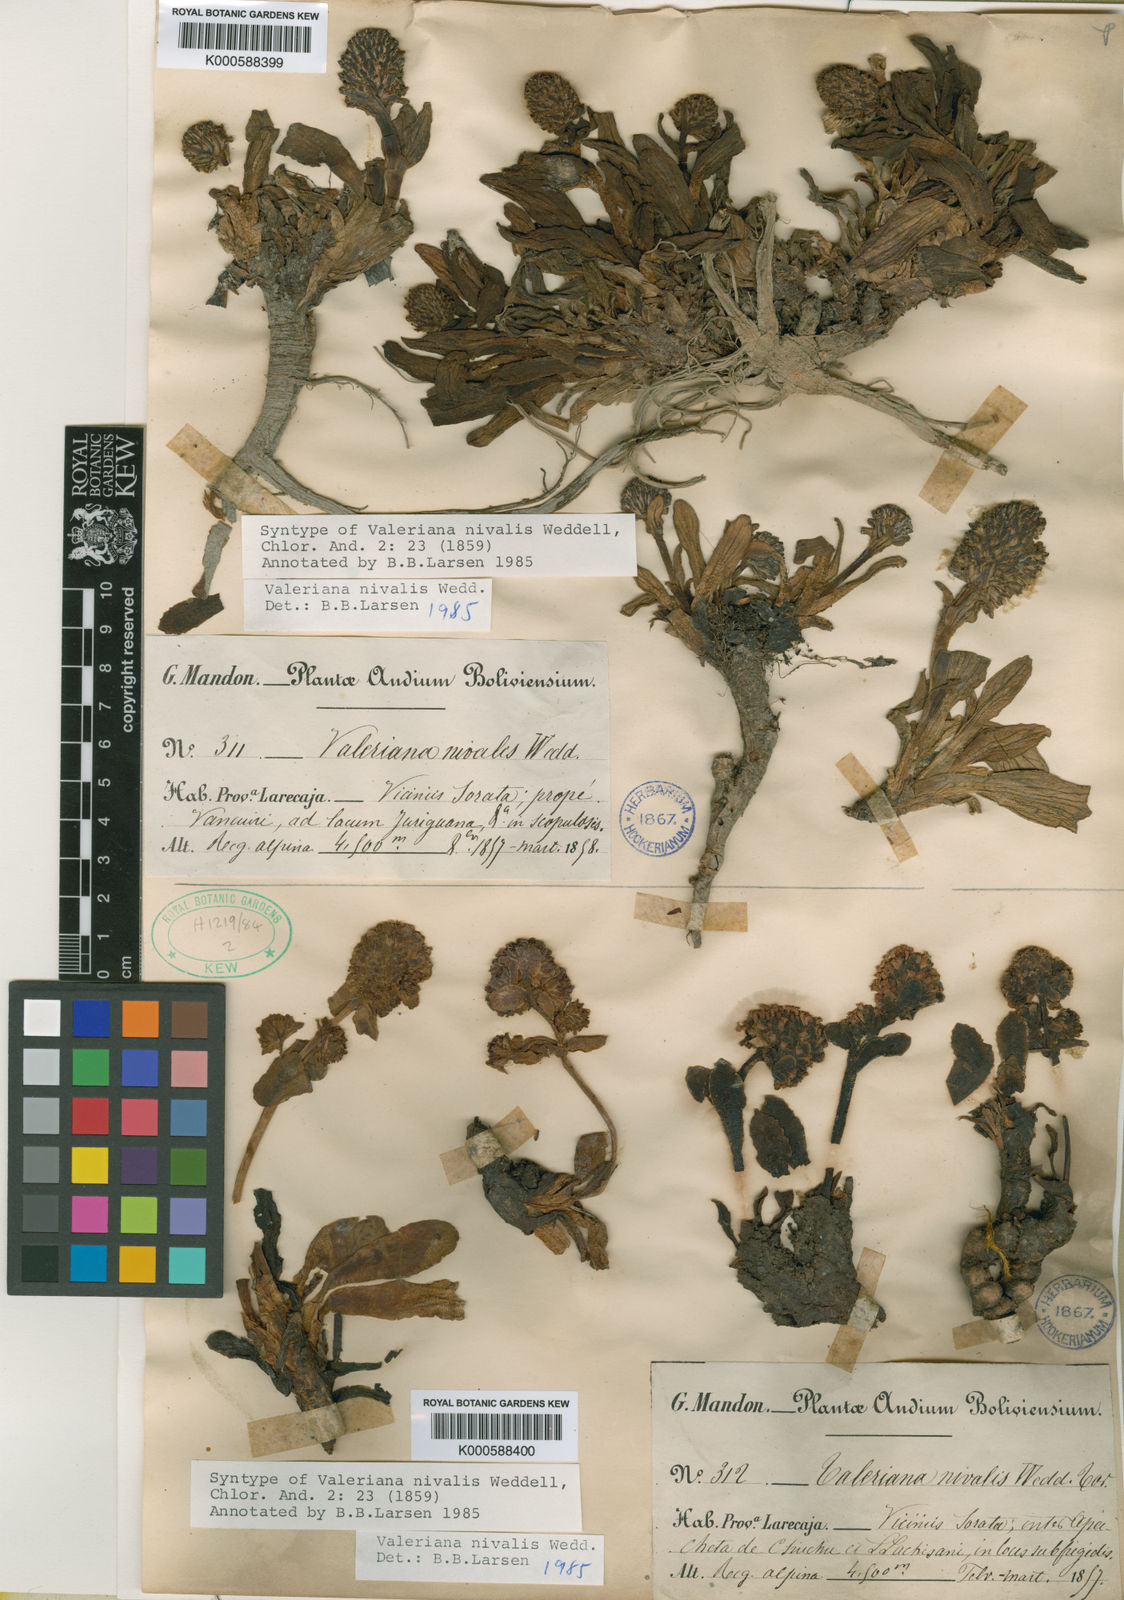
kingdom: Plantae
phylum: Tracheophyta
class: Magnoliopsida
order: Dipsacales
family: Caprifoliaceae
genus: Valeriana
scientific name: Valeriana nivalis
